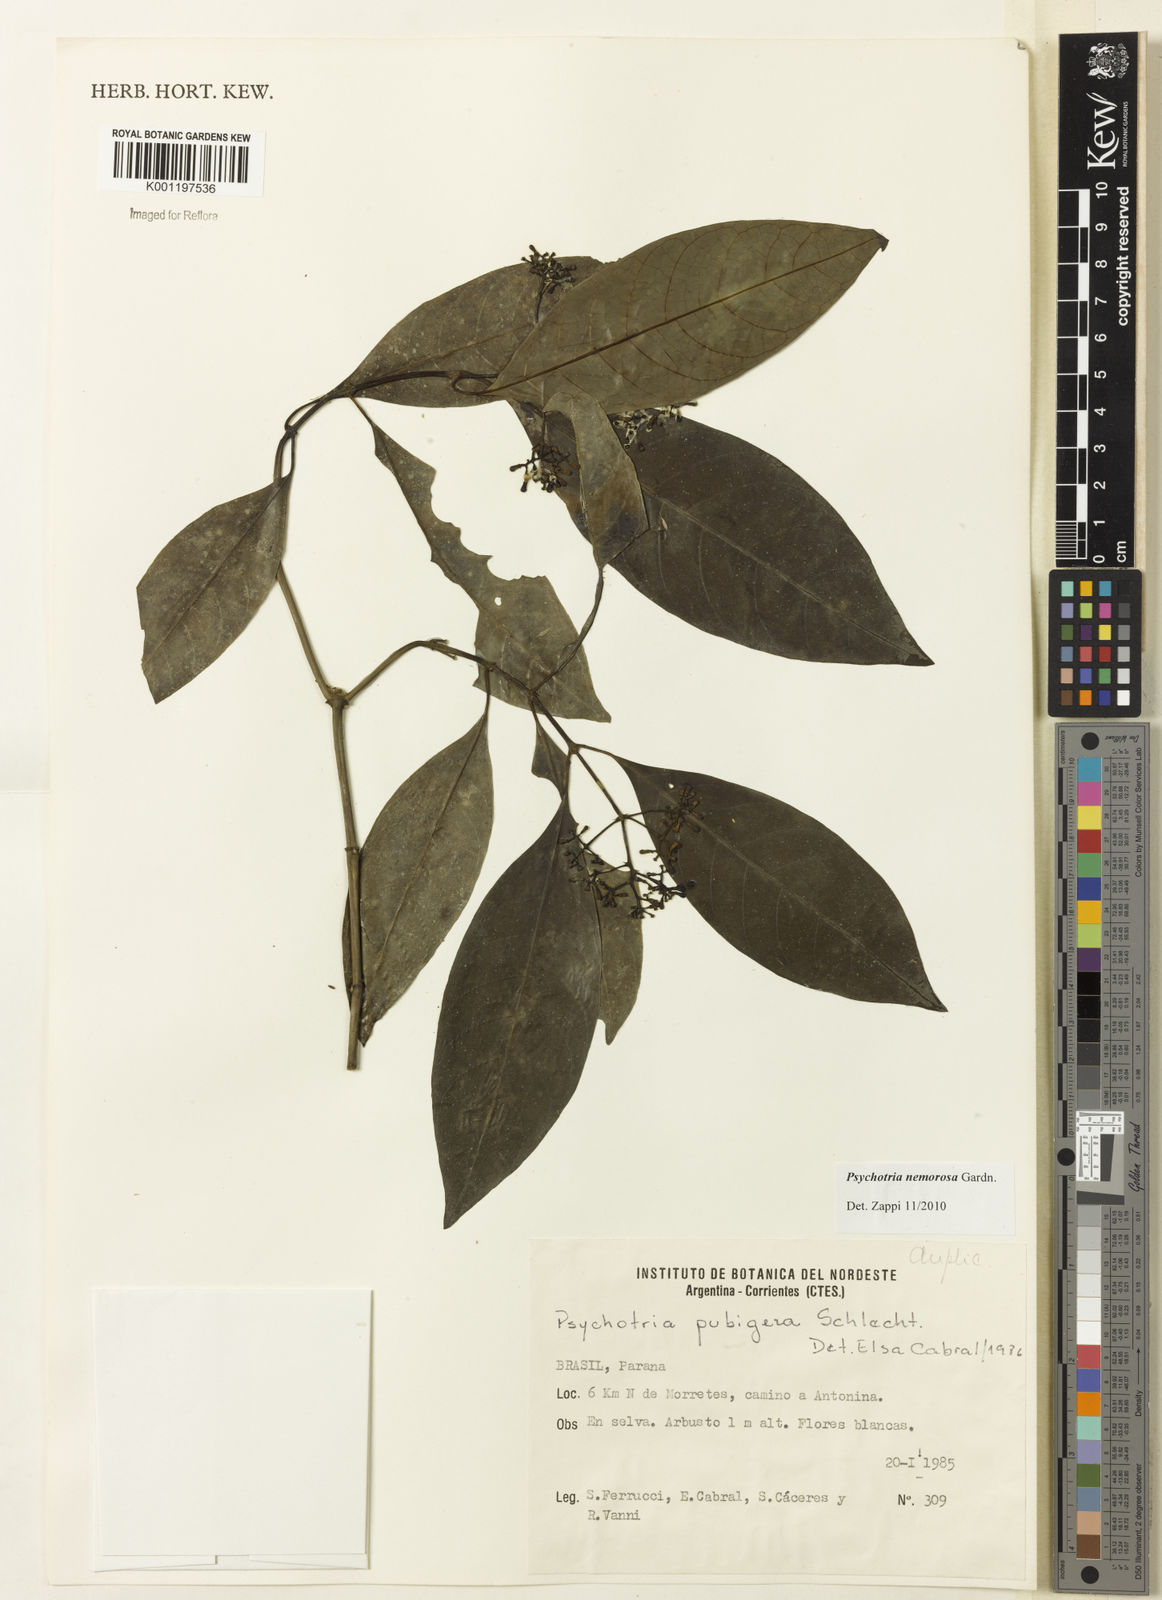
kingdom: Plantae
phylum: Tracheophyta
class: Magnoliopsida
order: Gentianales
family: Rubiaceae
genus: Psychotria
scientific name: Psychotria nemorosa
